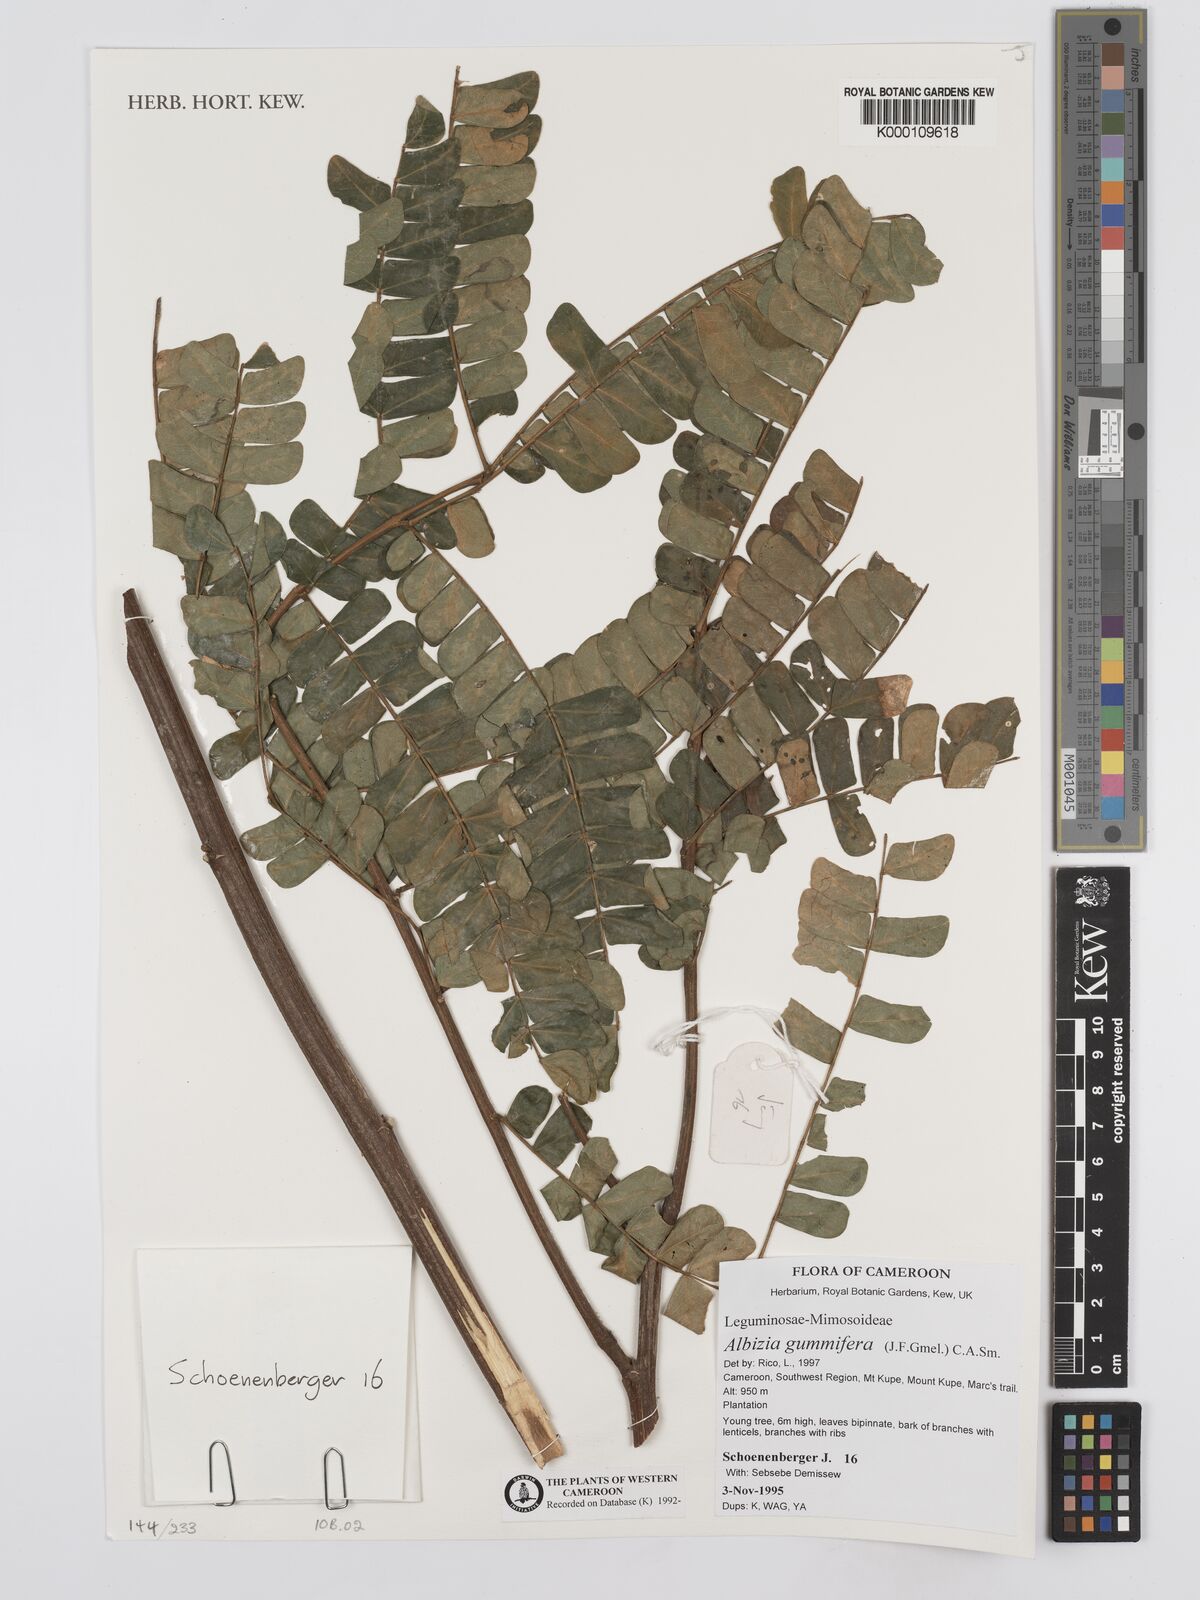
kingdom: Plantae
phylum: Tracheophyta
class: Magnoliopsida
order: Fabales
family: Fabaceae
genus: Albizia
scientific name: Albizia gummifera
